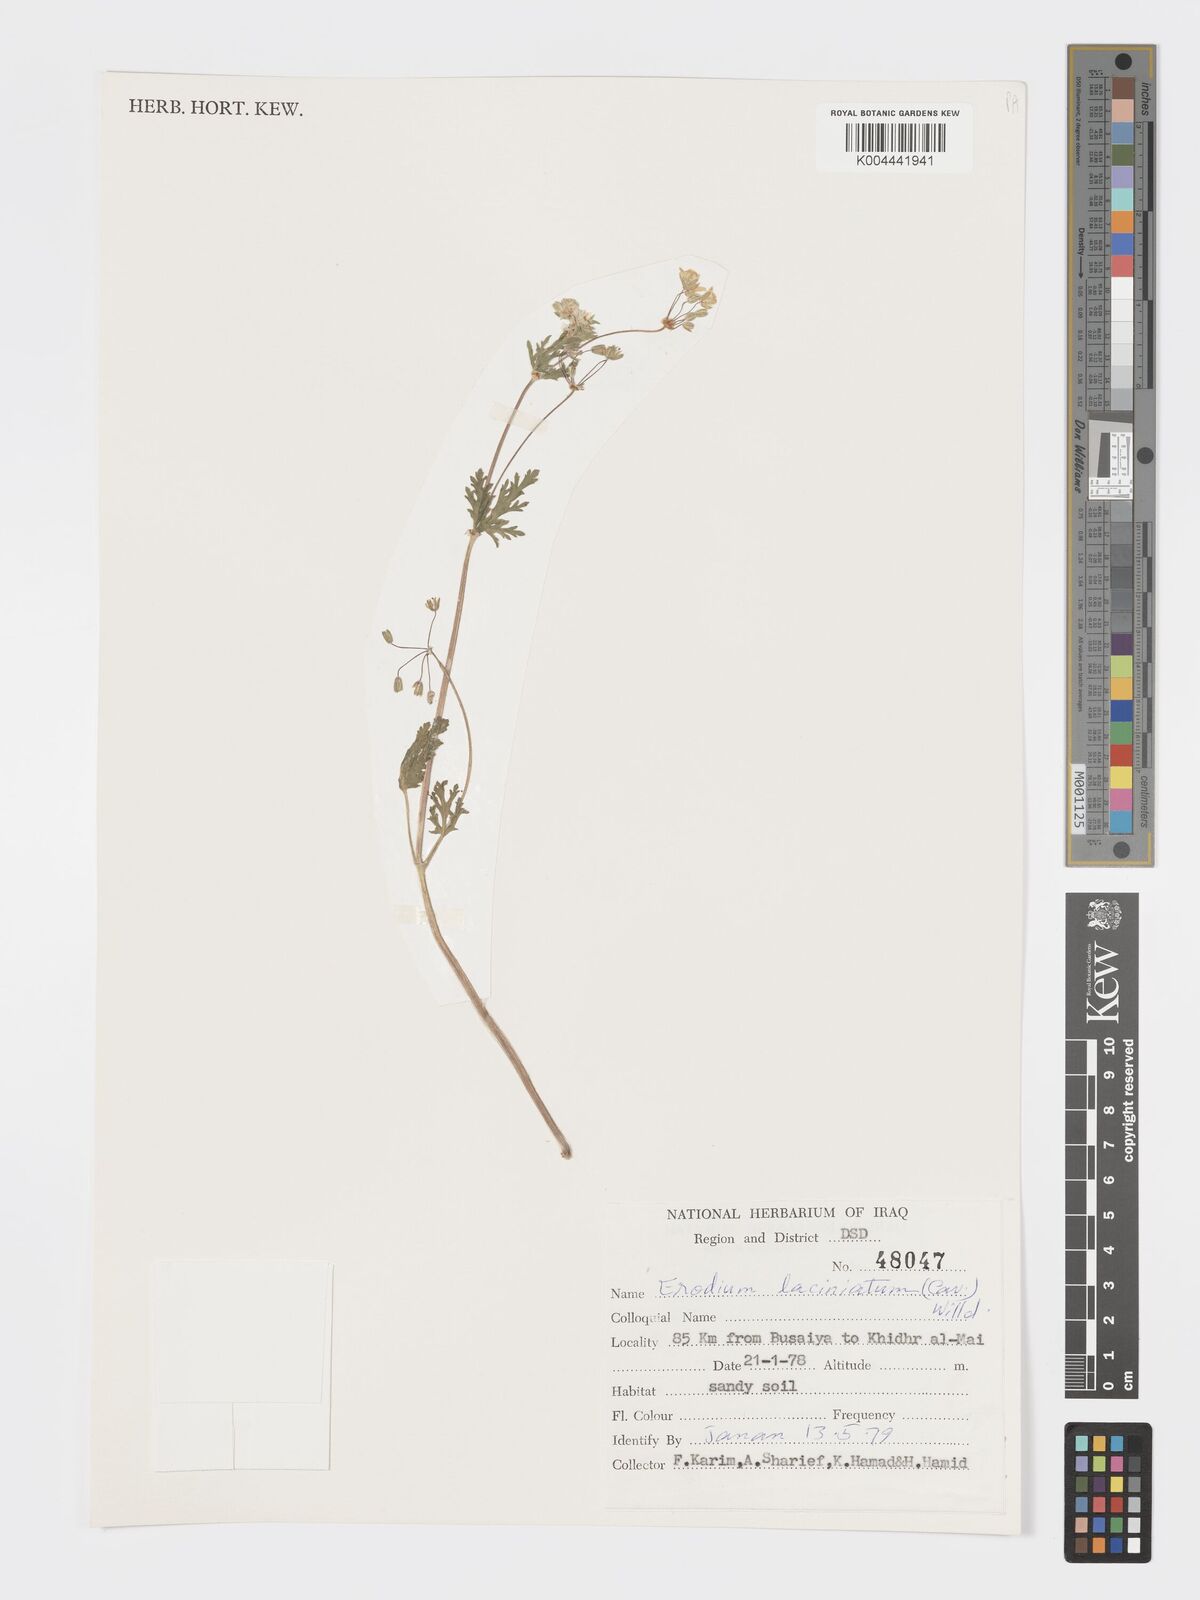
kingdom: Plantae
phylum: Tracheophyta
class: Magnoliopsida
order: Geraniales
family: Geraniaceae
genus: Erodium
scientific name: Erodium laciniatum
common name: Cutleaf stork's bill
